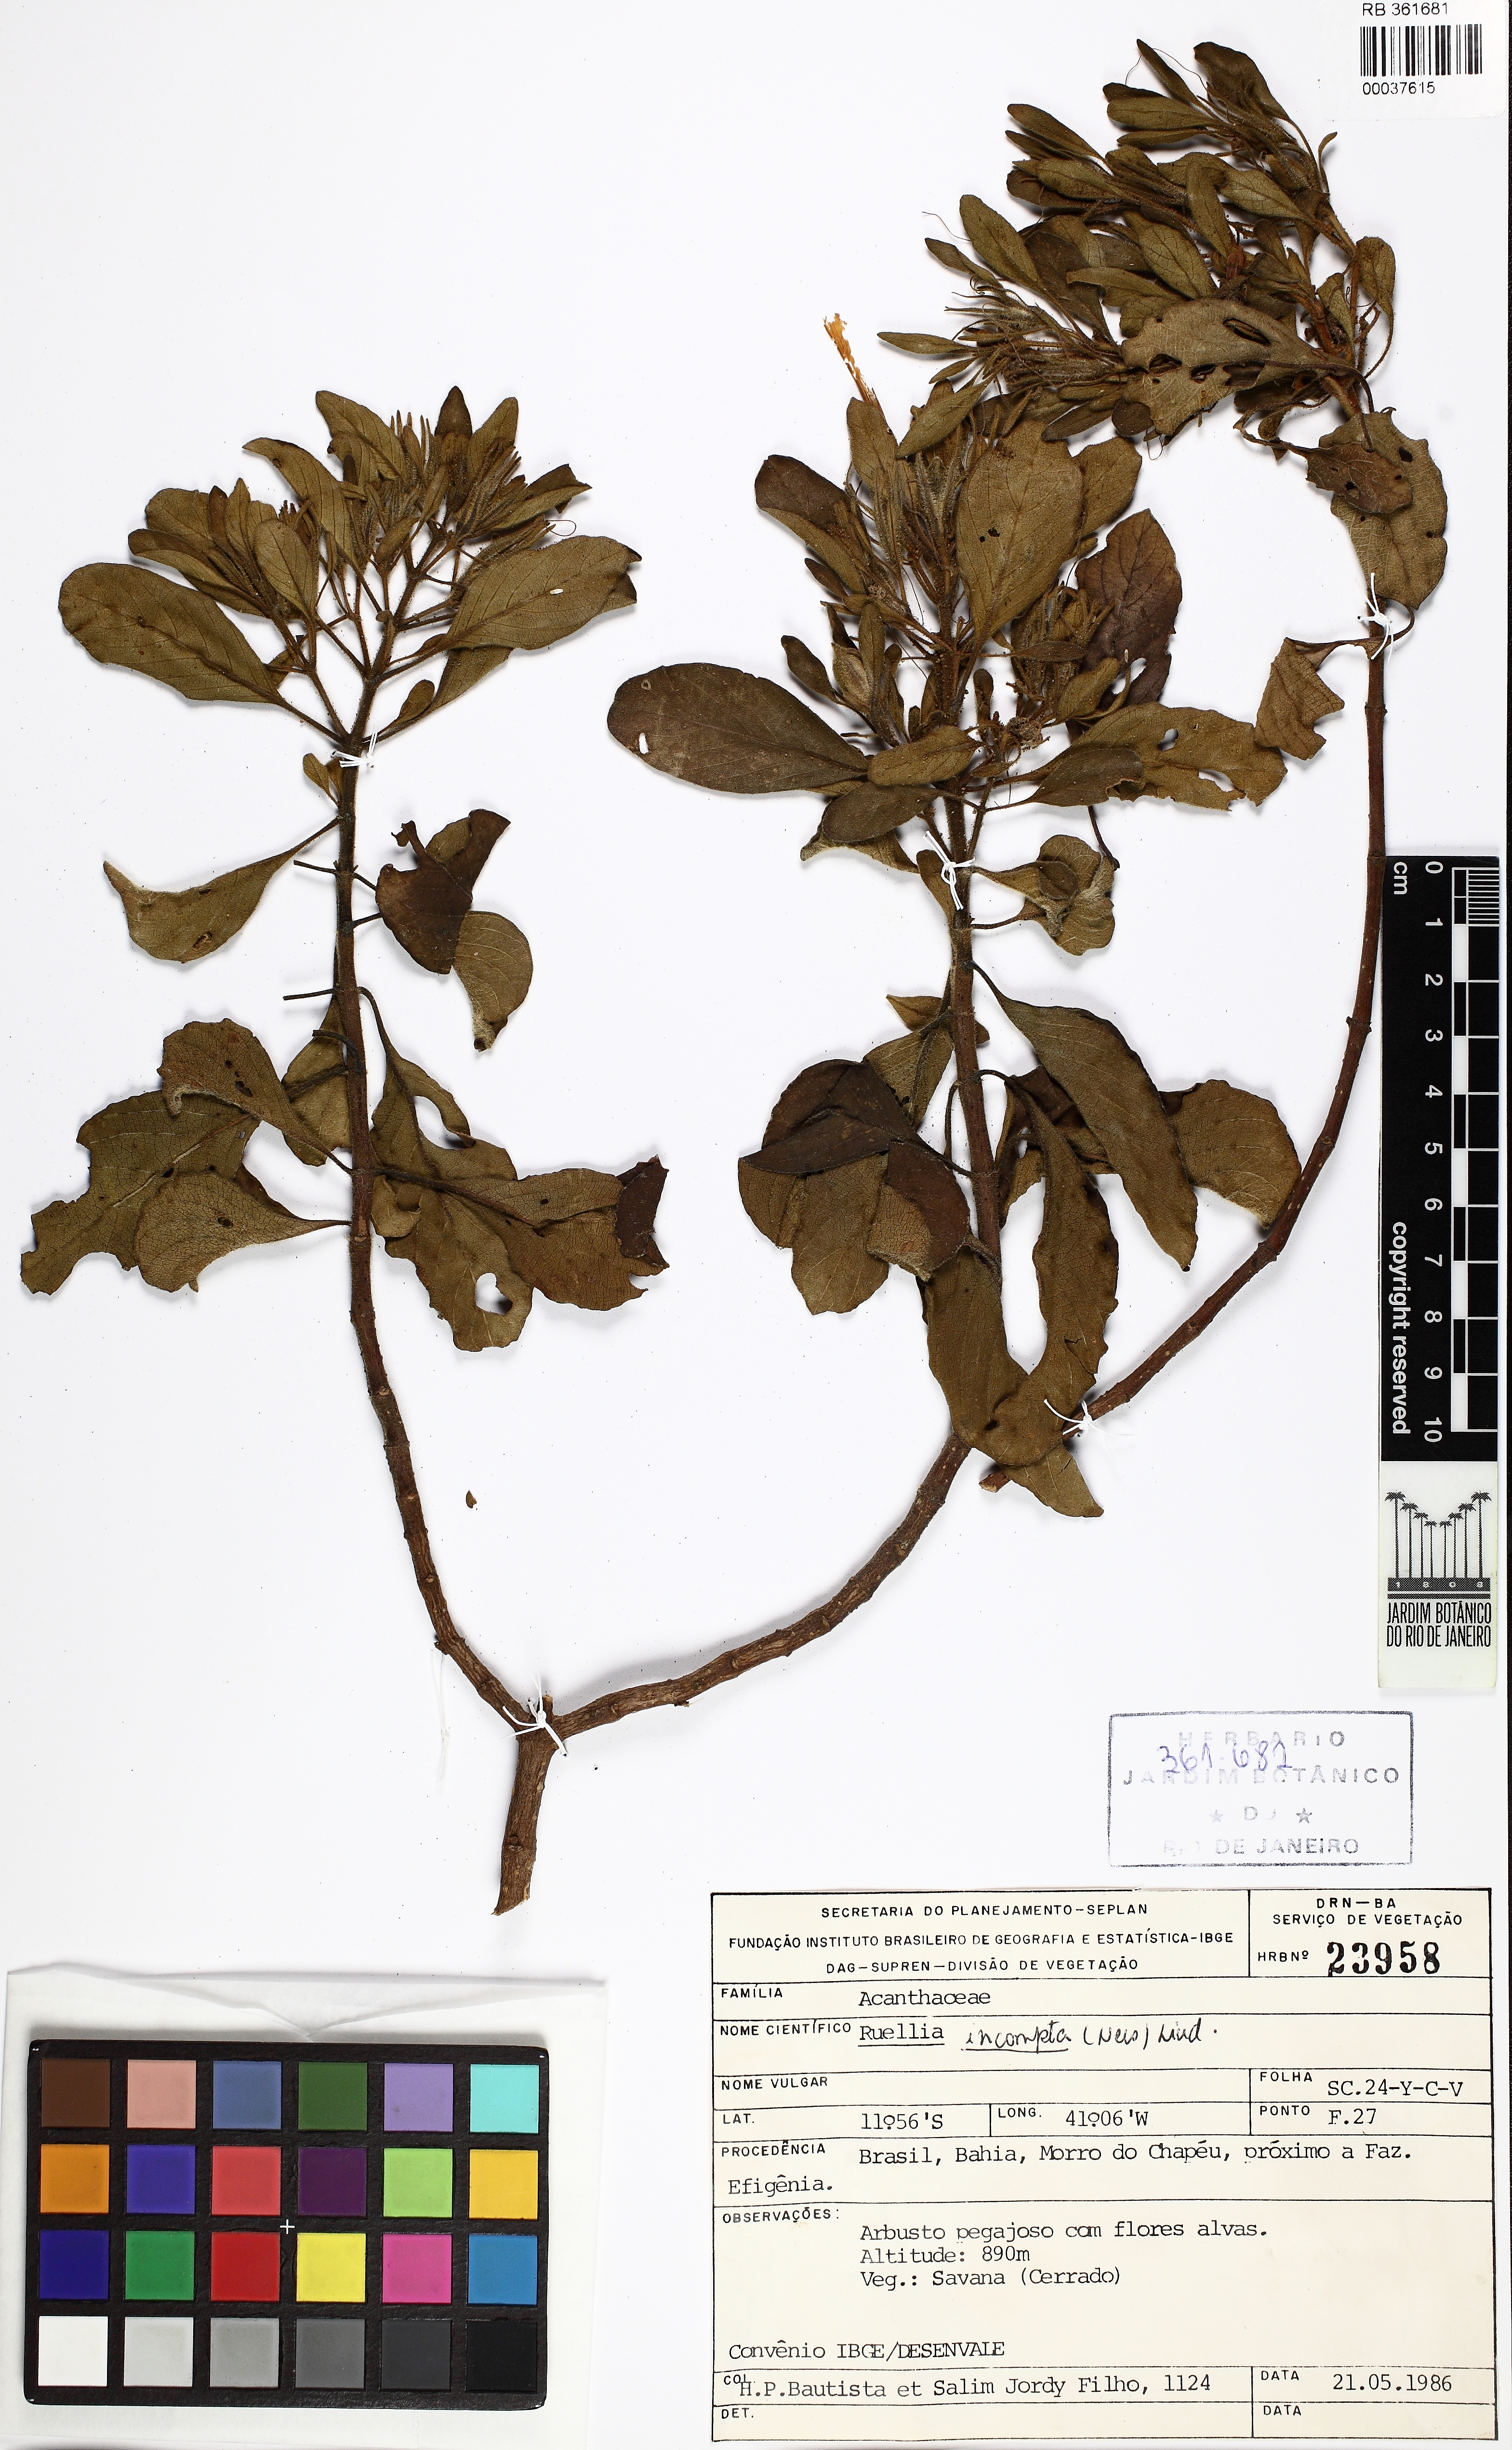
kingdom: Plantae
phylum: Tracheophyta
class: Magnoliopsida
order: Lamiales
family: Acanthaceae
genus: Ruellia
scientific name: Ruellia incomta
